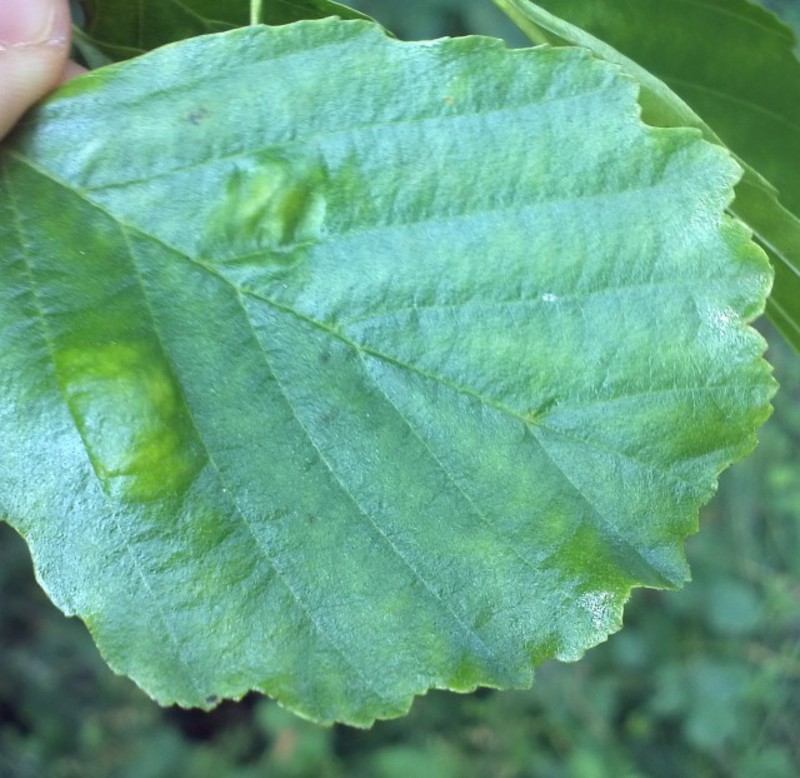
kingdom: Animalia
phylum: Arthropoda
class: Arachnida
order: Trombidiformes
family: Eriophyidae
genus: Acalitus
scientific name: Acalitus brevitarsus
